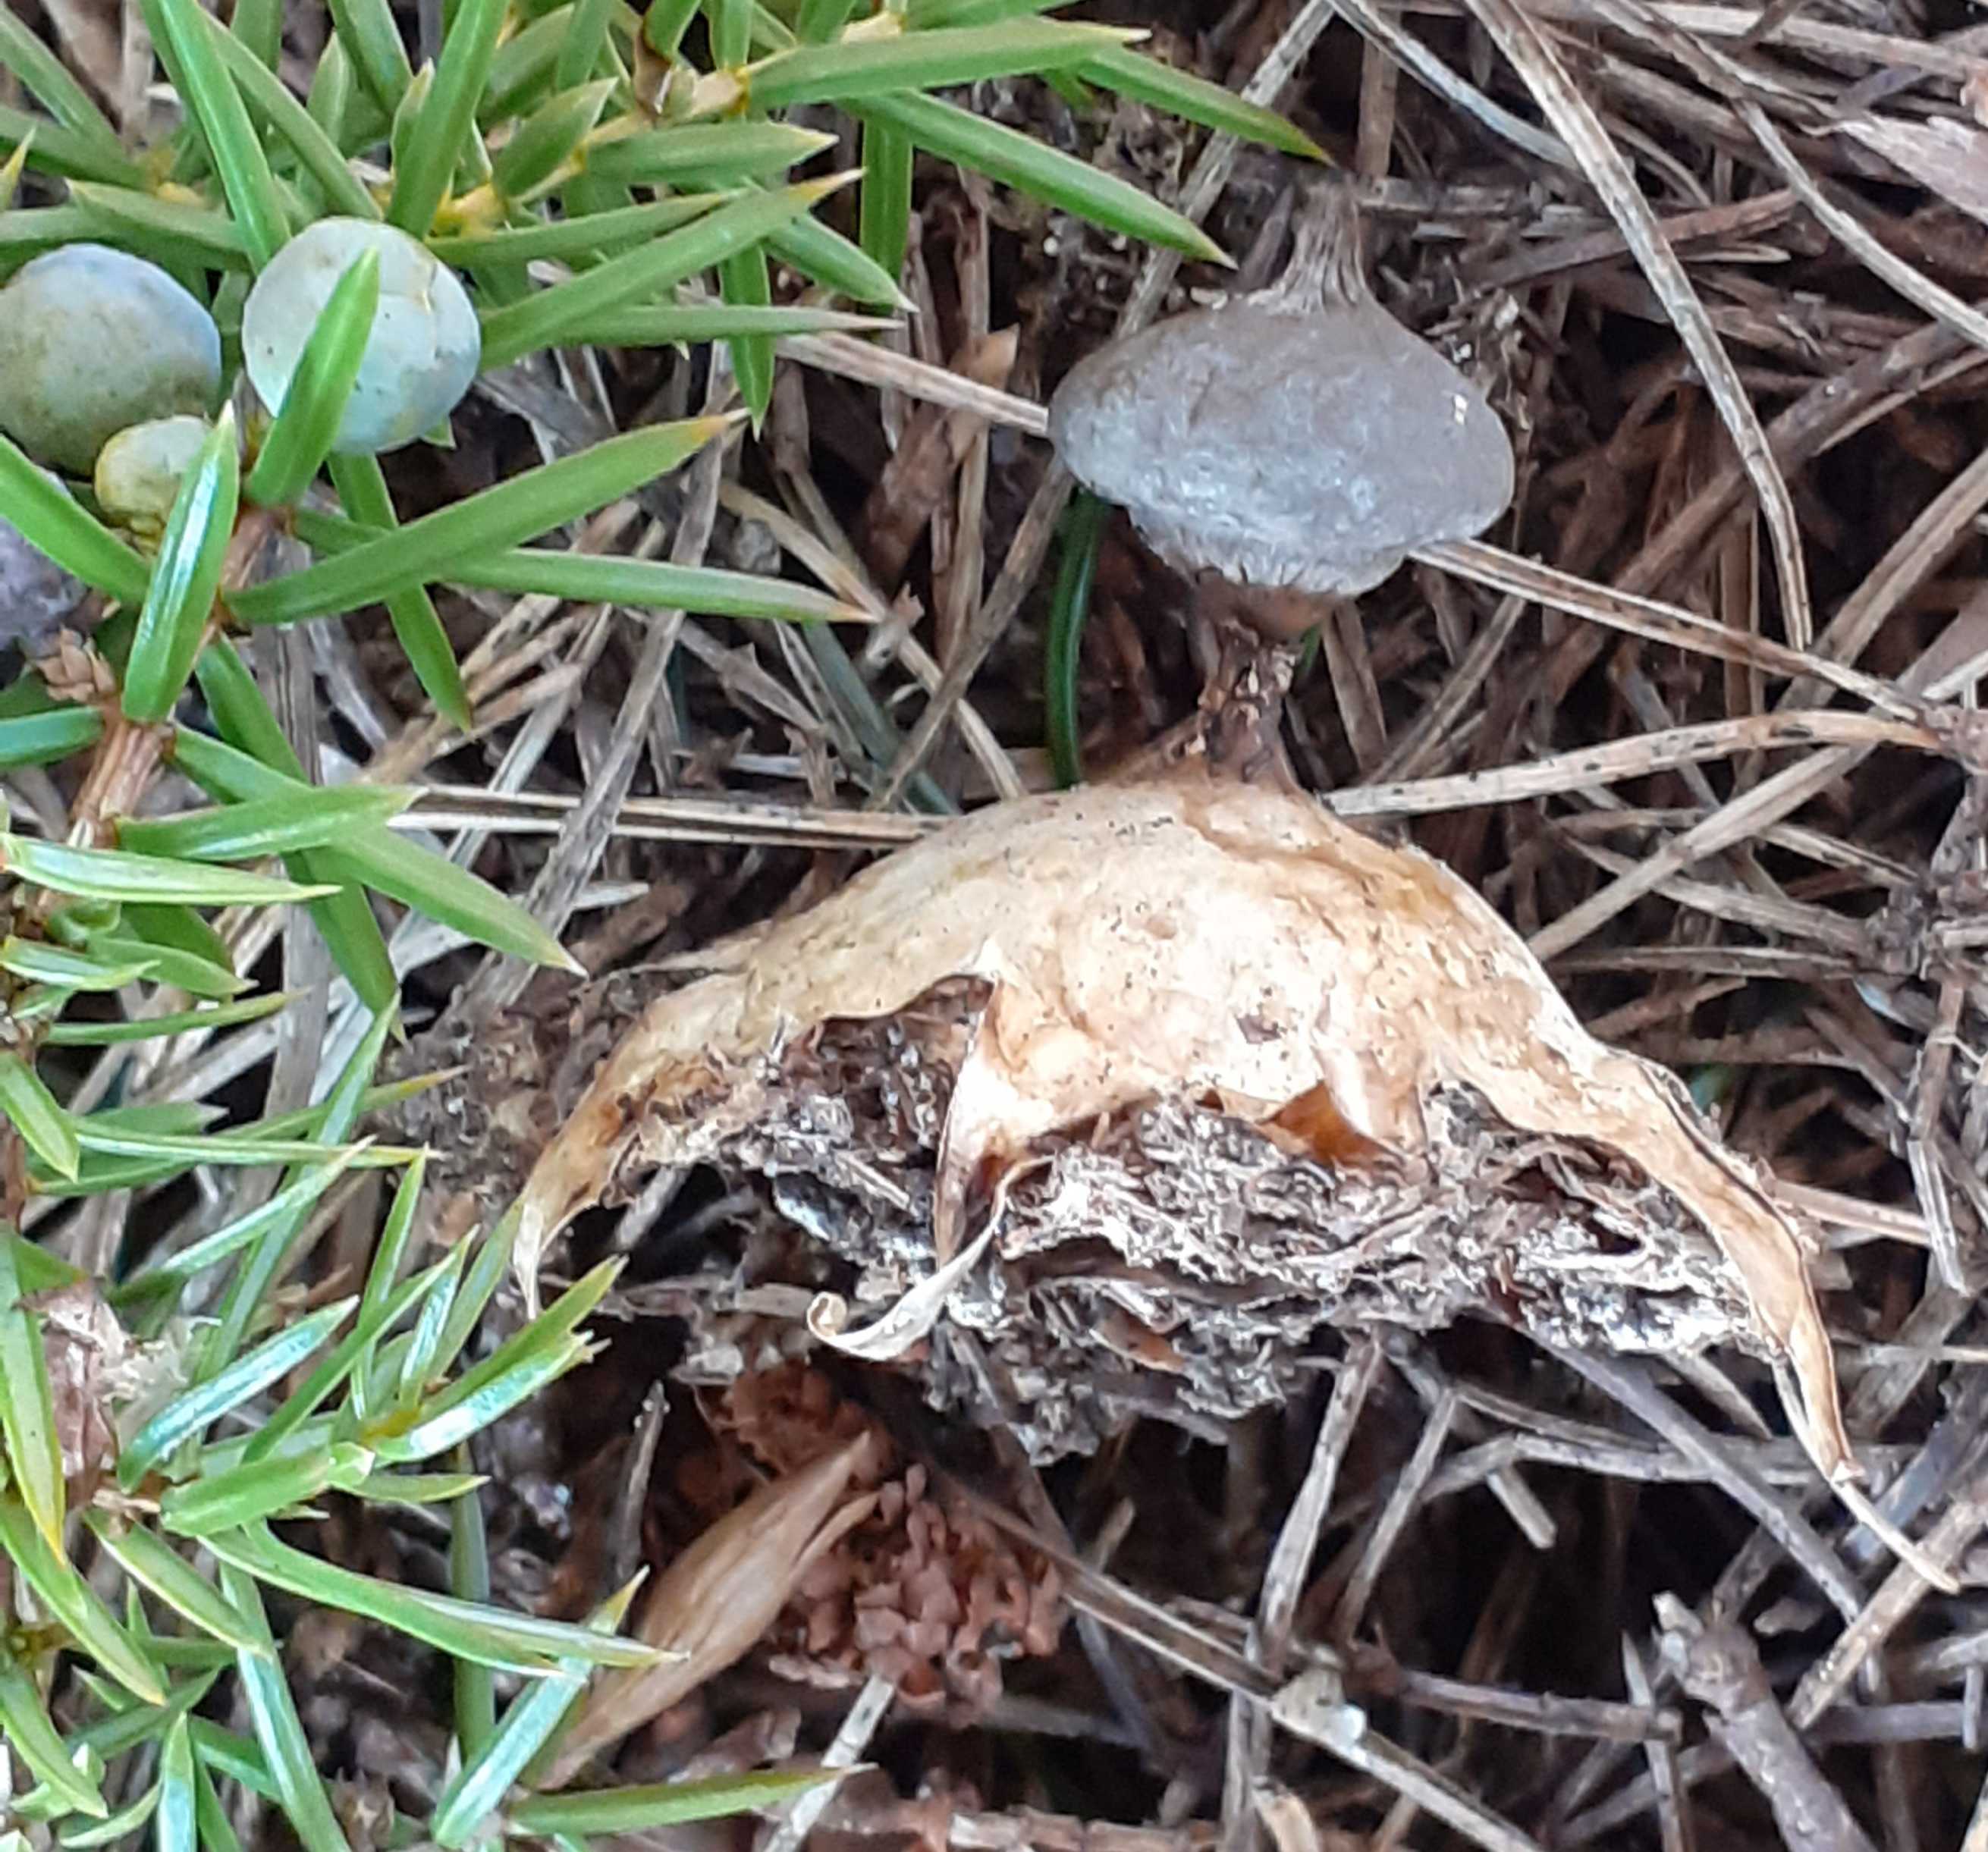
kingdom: Fungi
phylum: Basidiomycota
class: Agaricomycetes
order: Geastrales
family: Geastraceae
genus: Geastrum
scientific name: Geastrum pectinatum
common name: stilket stjernebold
